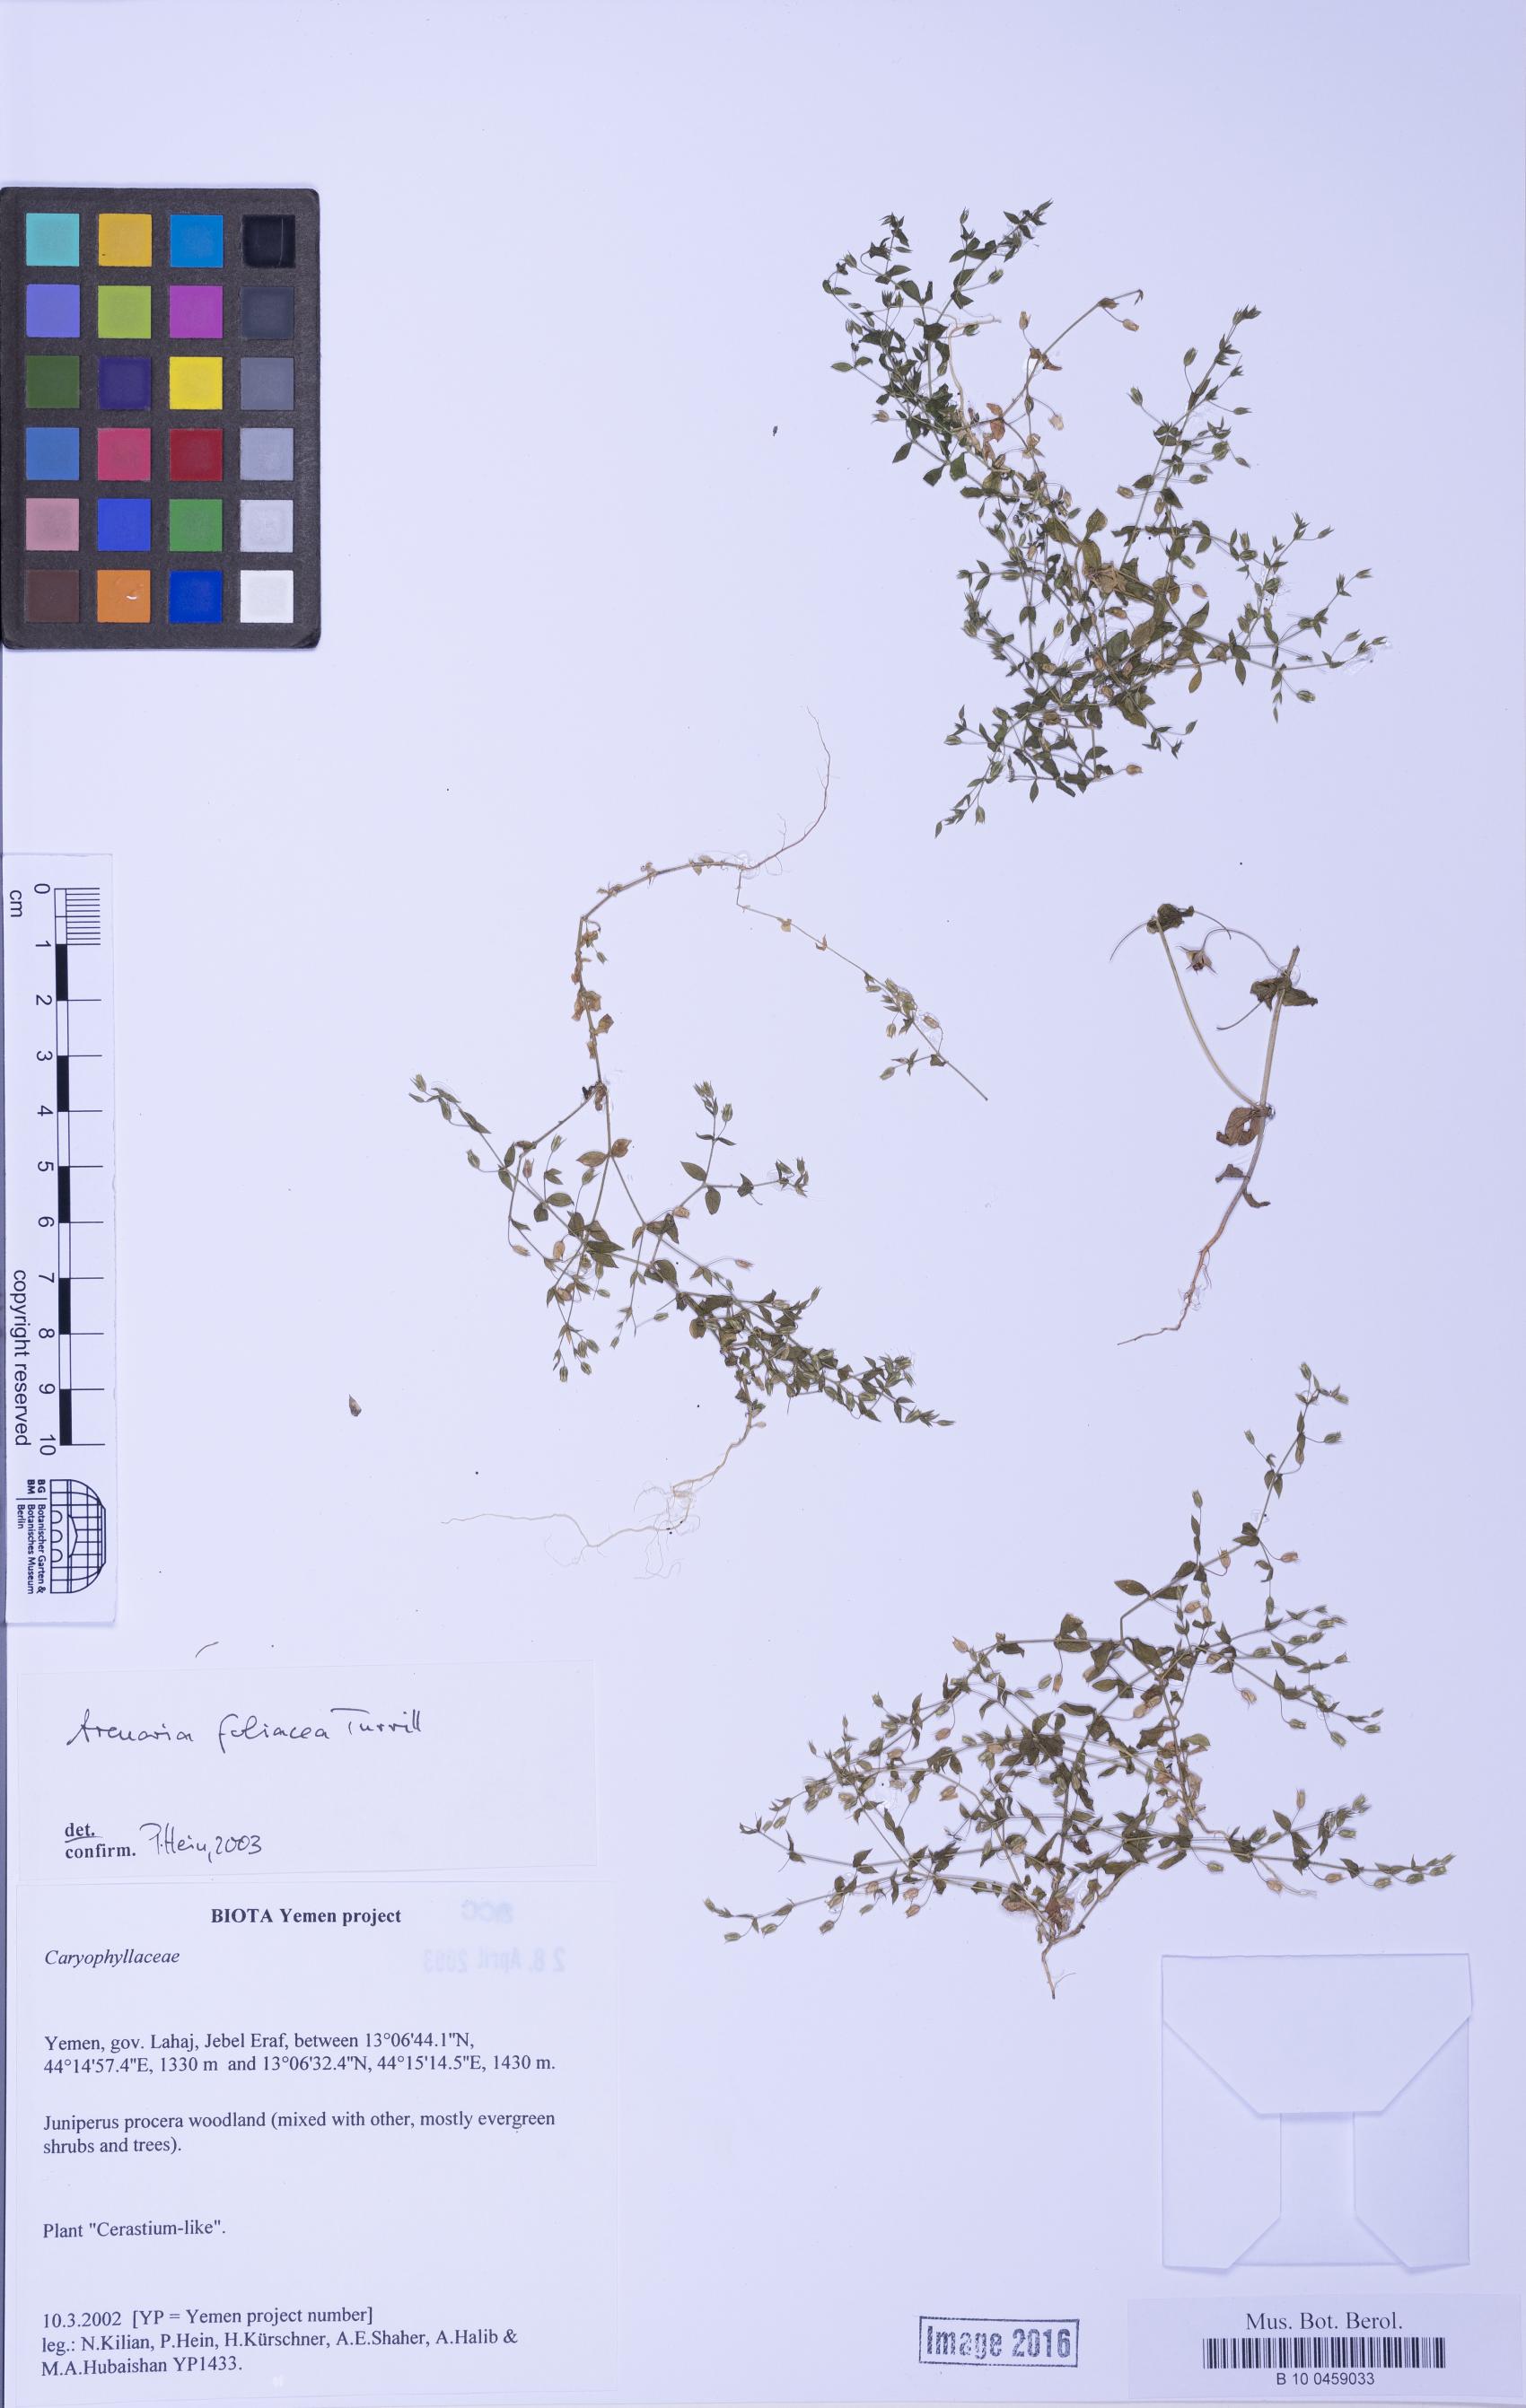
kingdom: Plantae
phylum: Tracheophyta
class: Magnoliopsida
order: Caryophyllales
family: Caryophyllaceae
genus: Arenaria
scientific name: Arenaria leptoclados
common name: Thyme-leaved sandwort
